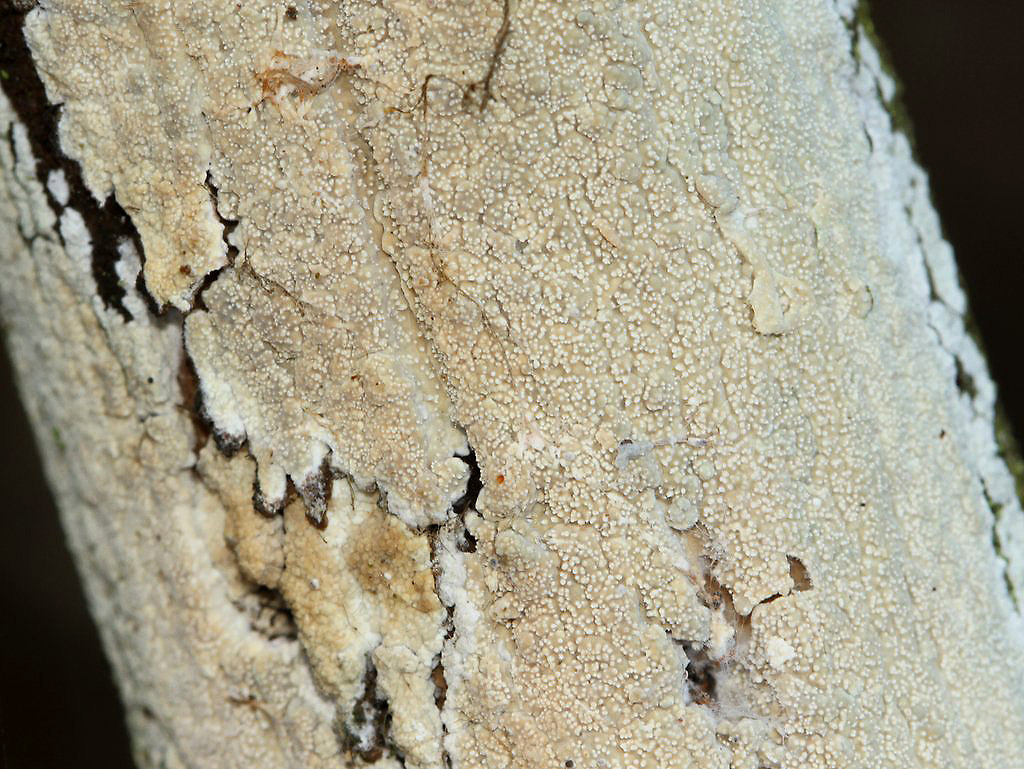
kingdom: Fungi
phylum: Basidiomycota
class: Agaricomycetes
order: Corticiales
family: Corticiaceae
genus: Lyomyces
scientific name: Lyomyces crustosus
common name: vortet hyldehinde
